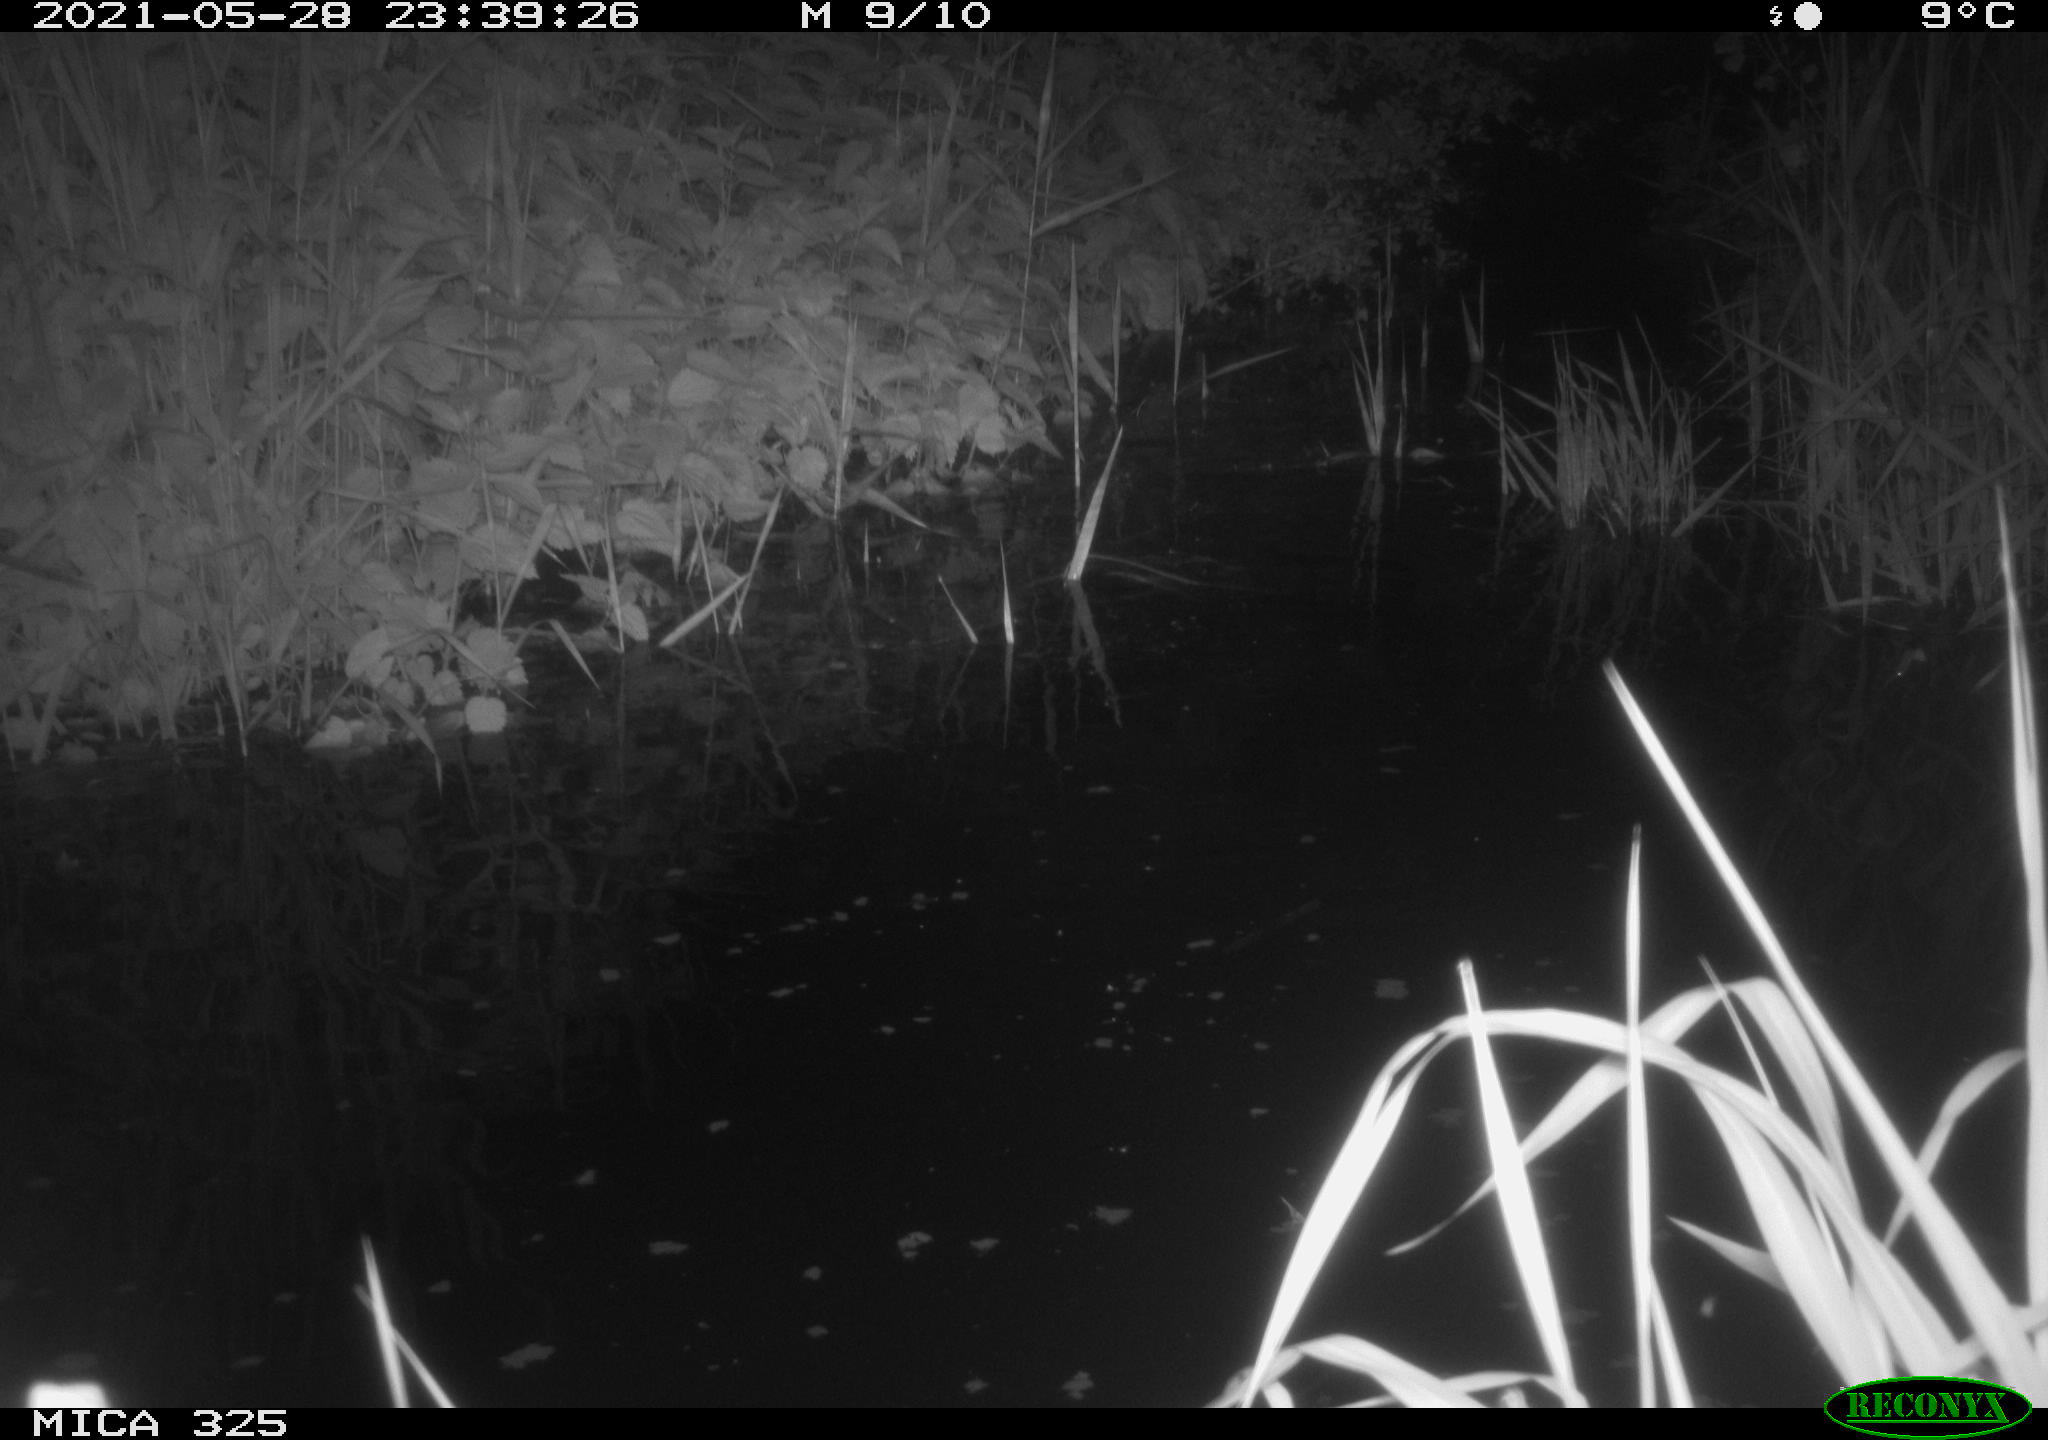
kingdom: Animalia
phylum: Chordata
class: Mammalia
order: Rodentia
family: Cricetidae
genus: Ondatra
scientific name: Ondatra zibethicus
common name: Muskrat
